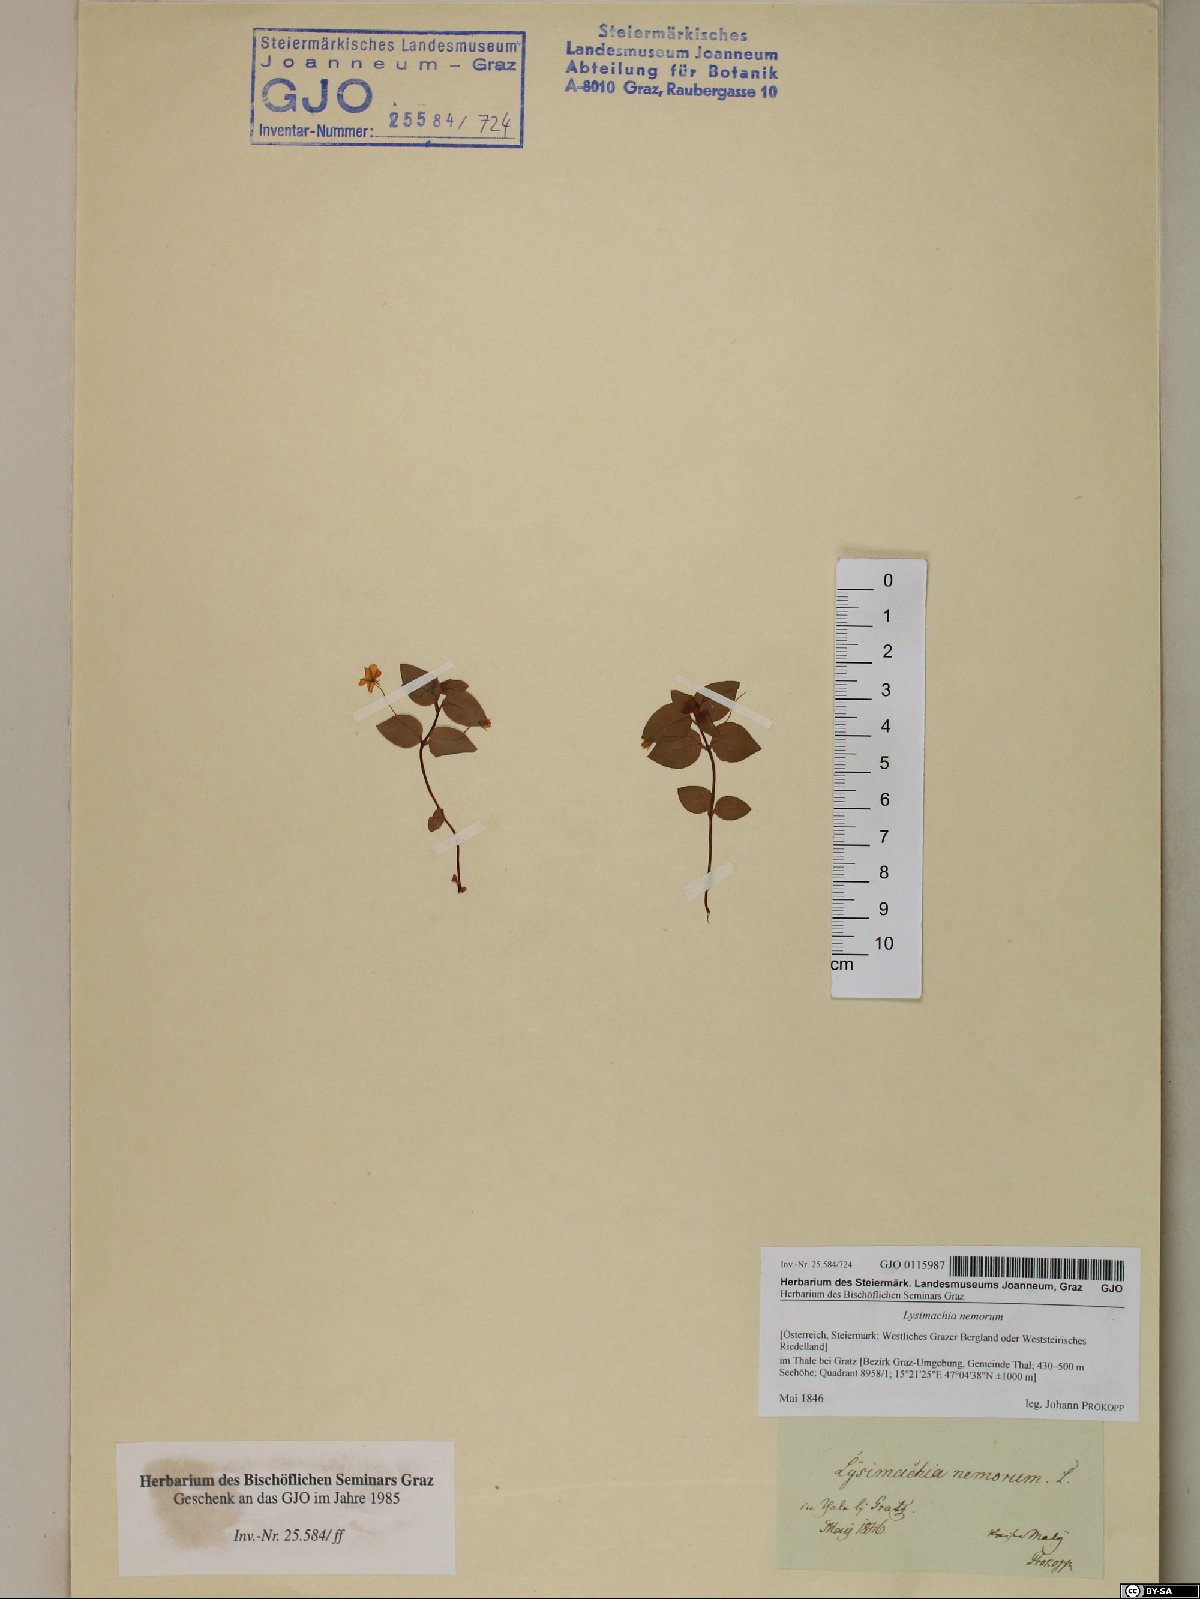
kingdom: Plantae
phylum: Tracheophyta
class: Magnoliopsida
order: Ericales
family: Primulaceae
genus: Lysimachia
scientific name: Lysimachia nemorum
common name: Yellow pimpernel
